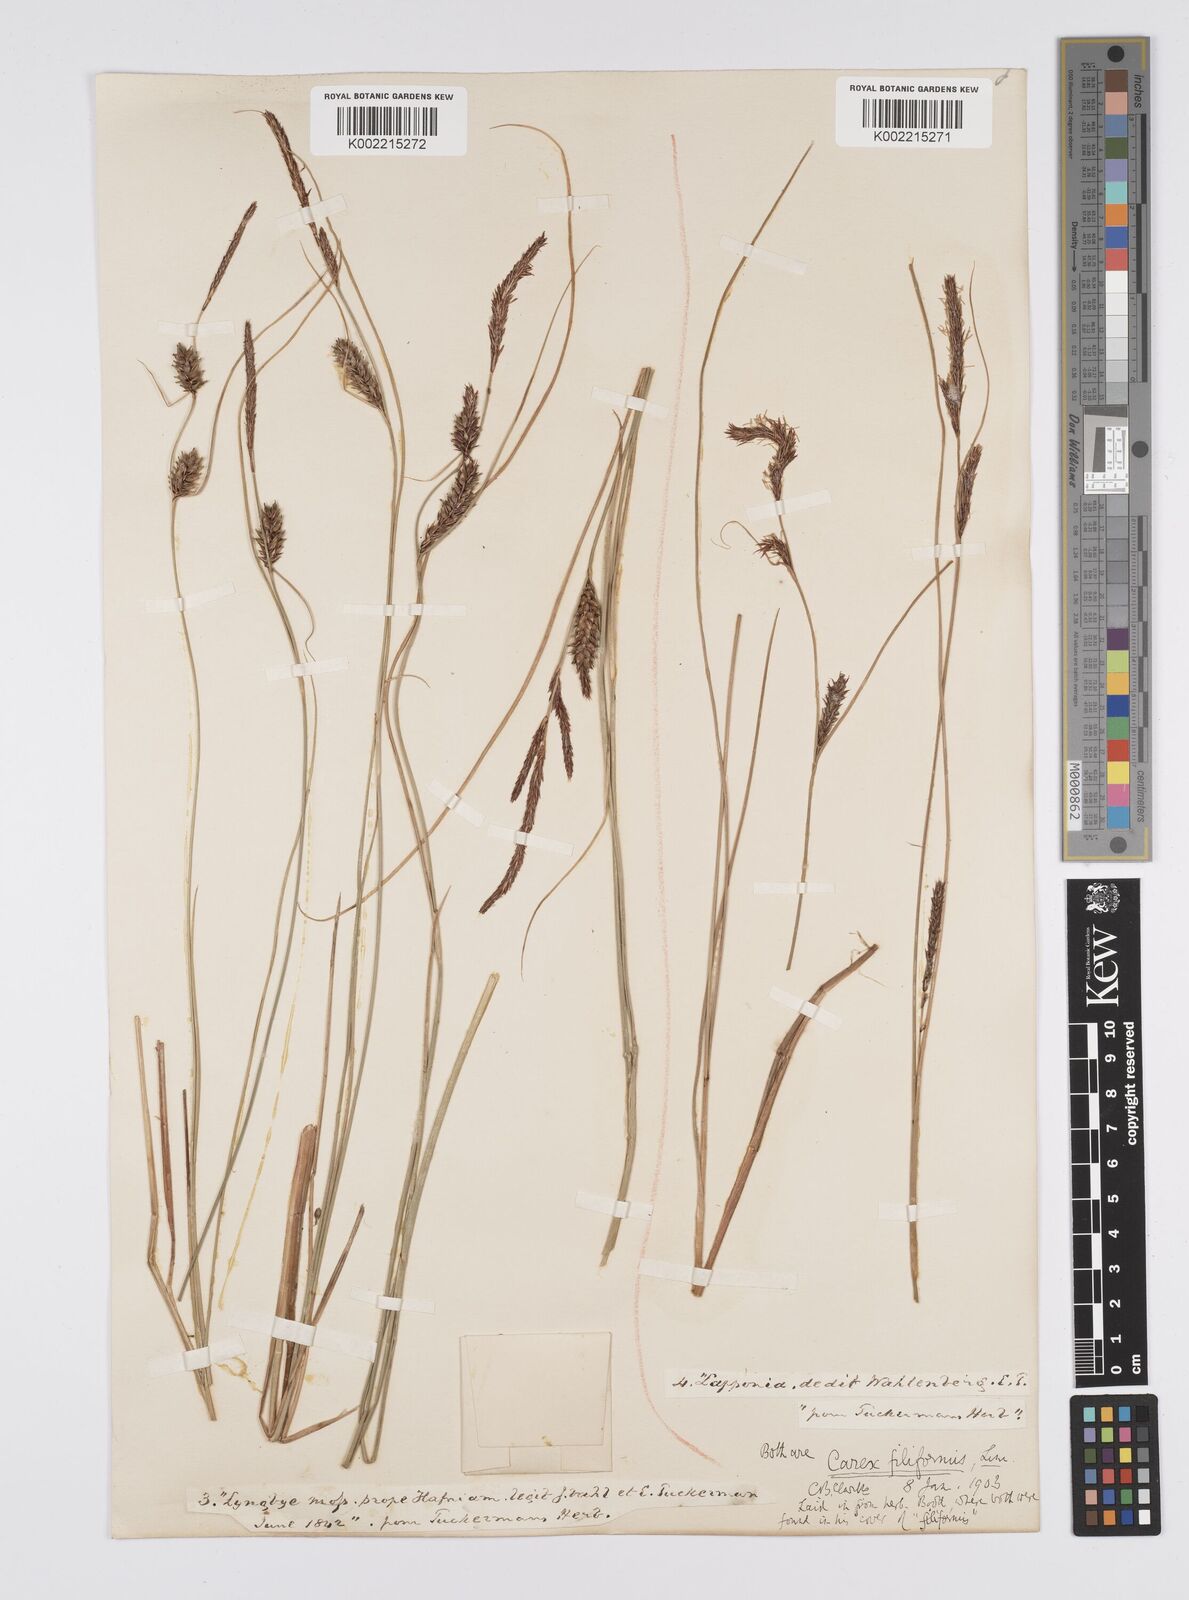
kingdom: Plantae
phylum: Tracheophyta
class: Liliopsida
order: Poales
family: Cyperaceae
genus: Carex
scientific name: Carex lasiocarpa
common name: Slender sedge
